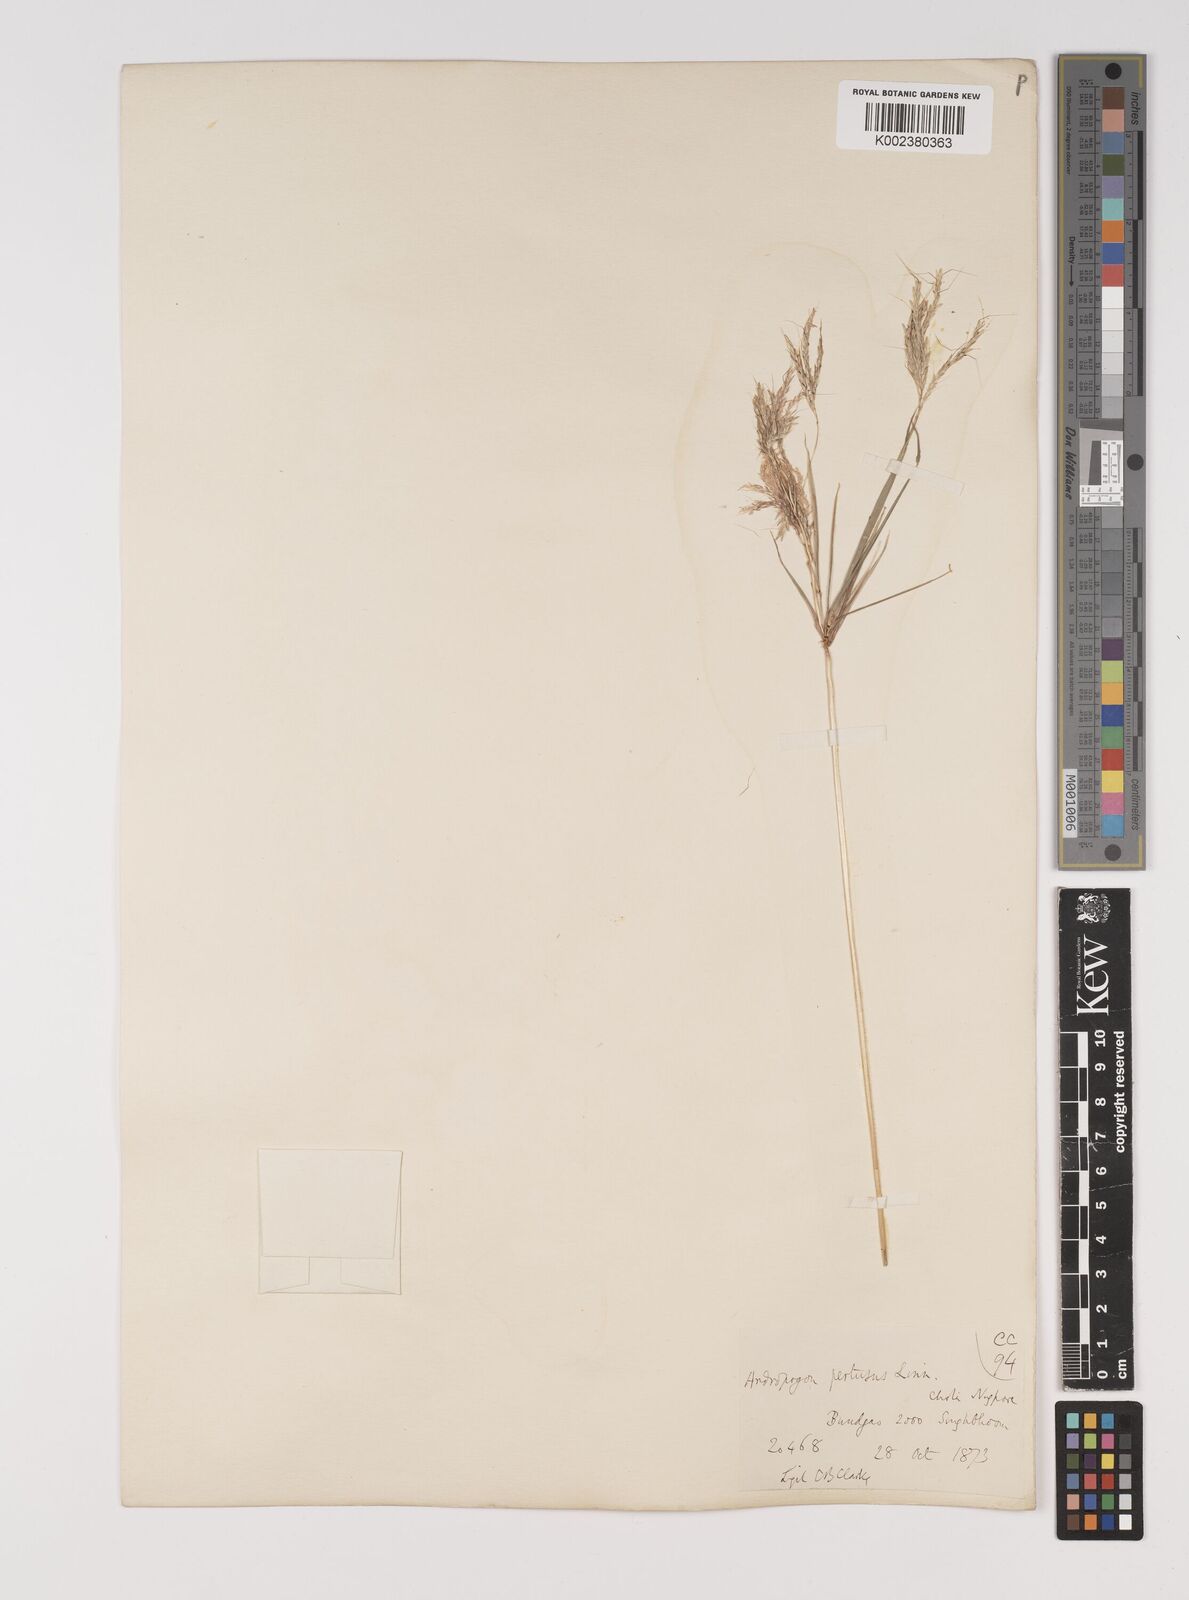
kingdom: Plantae
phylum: Tracheophyta
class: Liliopsida
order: Poales
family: Poaceae
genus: Bothriochloa
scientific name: Bothriochloa pertusa
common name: Pitted beardgrass
